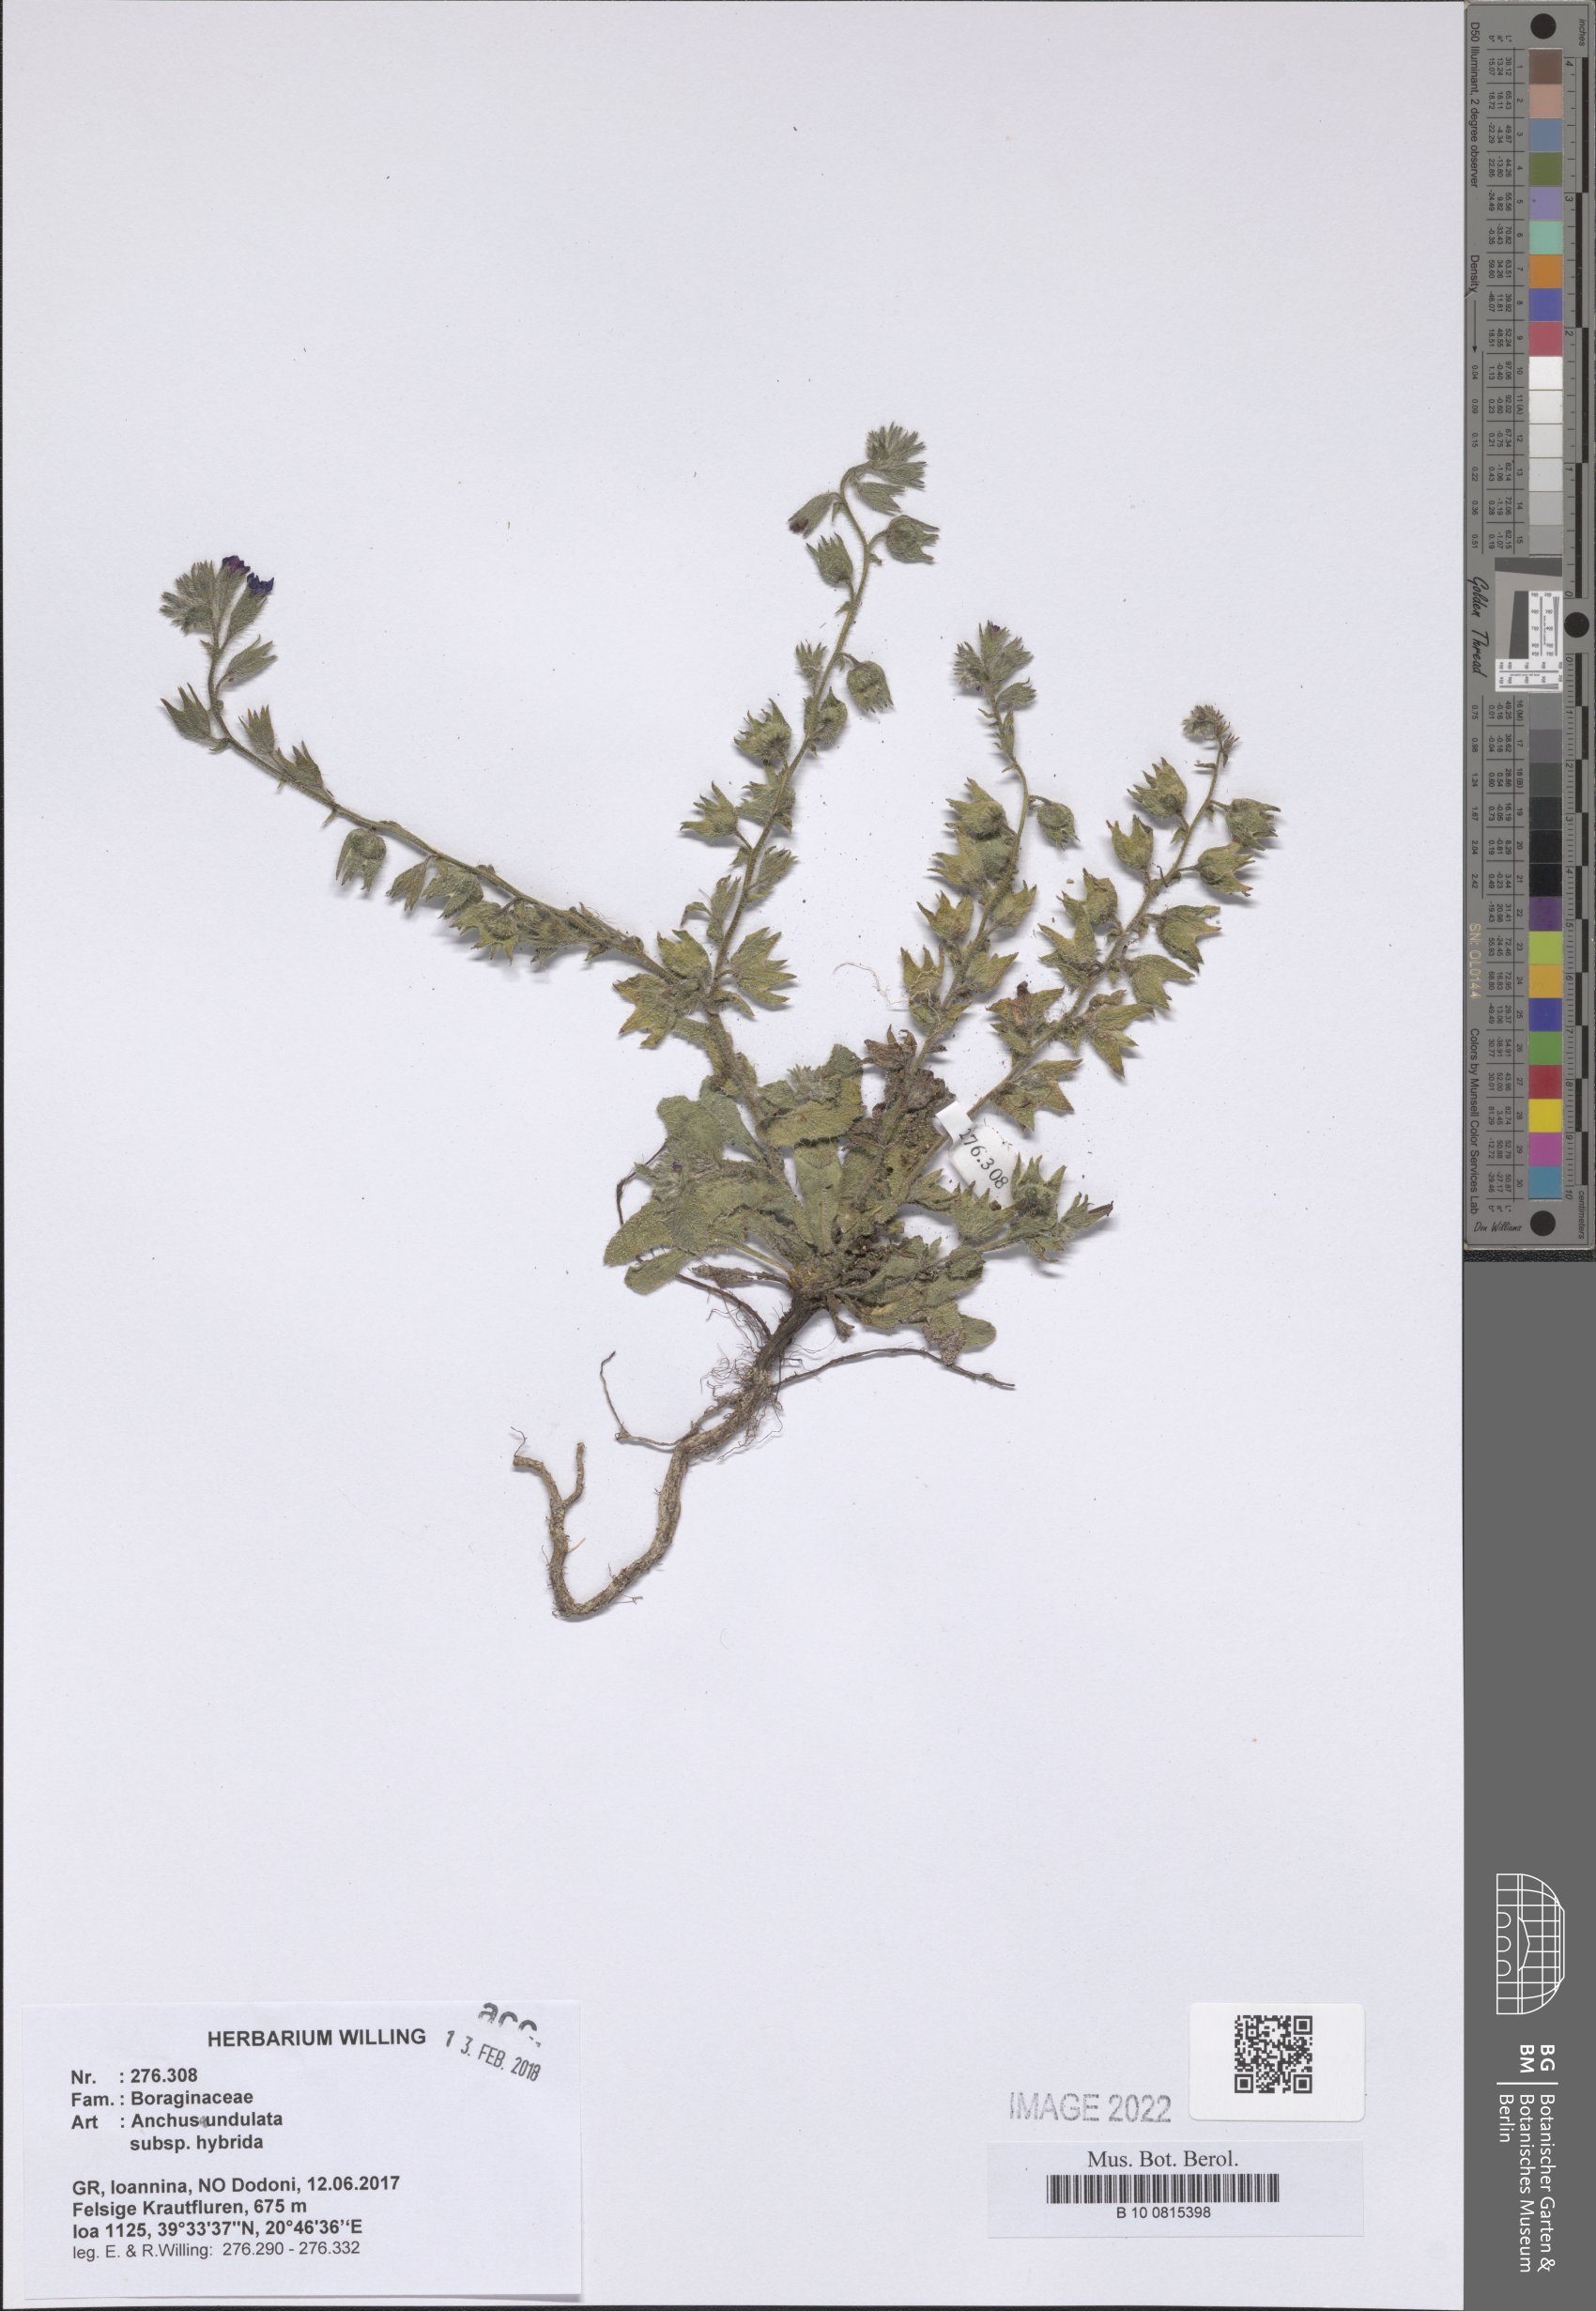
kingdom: Plantae
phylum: Tracheophyta
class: Magnoliopsida
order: Boraginales
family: Boraginaceae
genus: Anchusa
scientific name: Anchusa undulata
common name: Undulate alkanet
